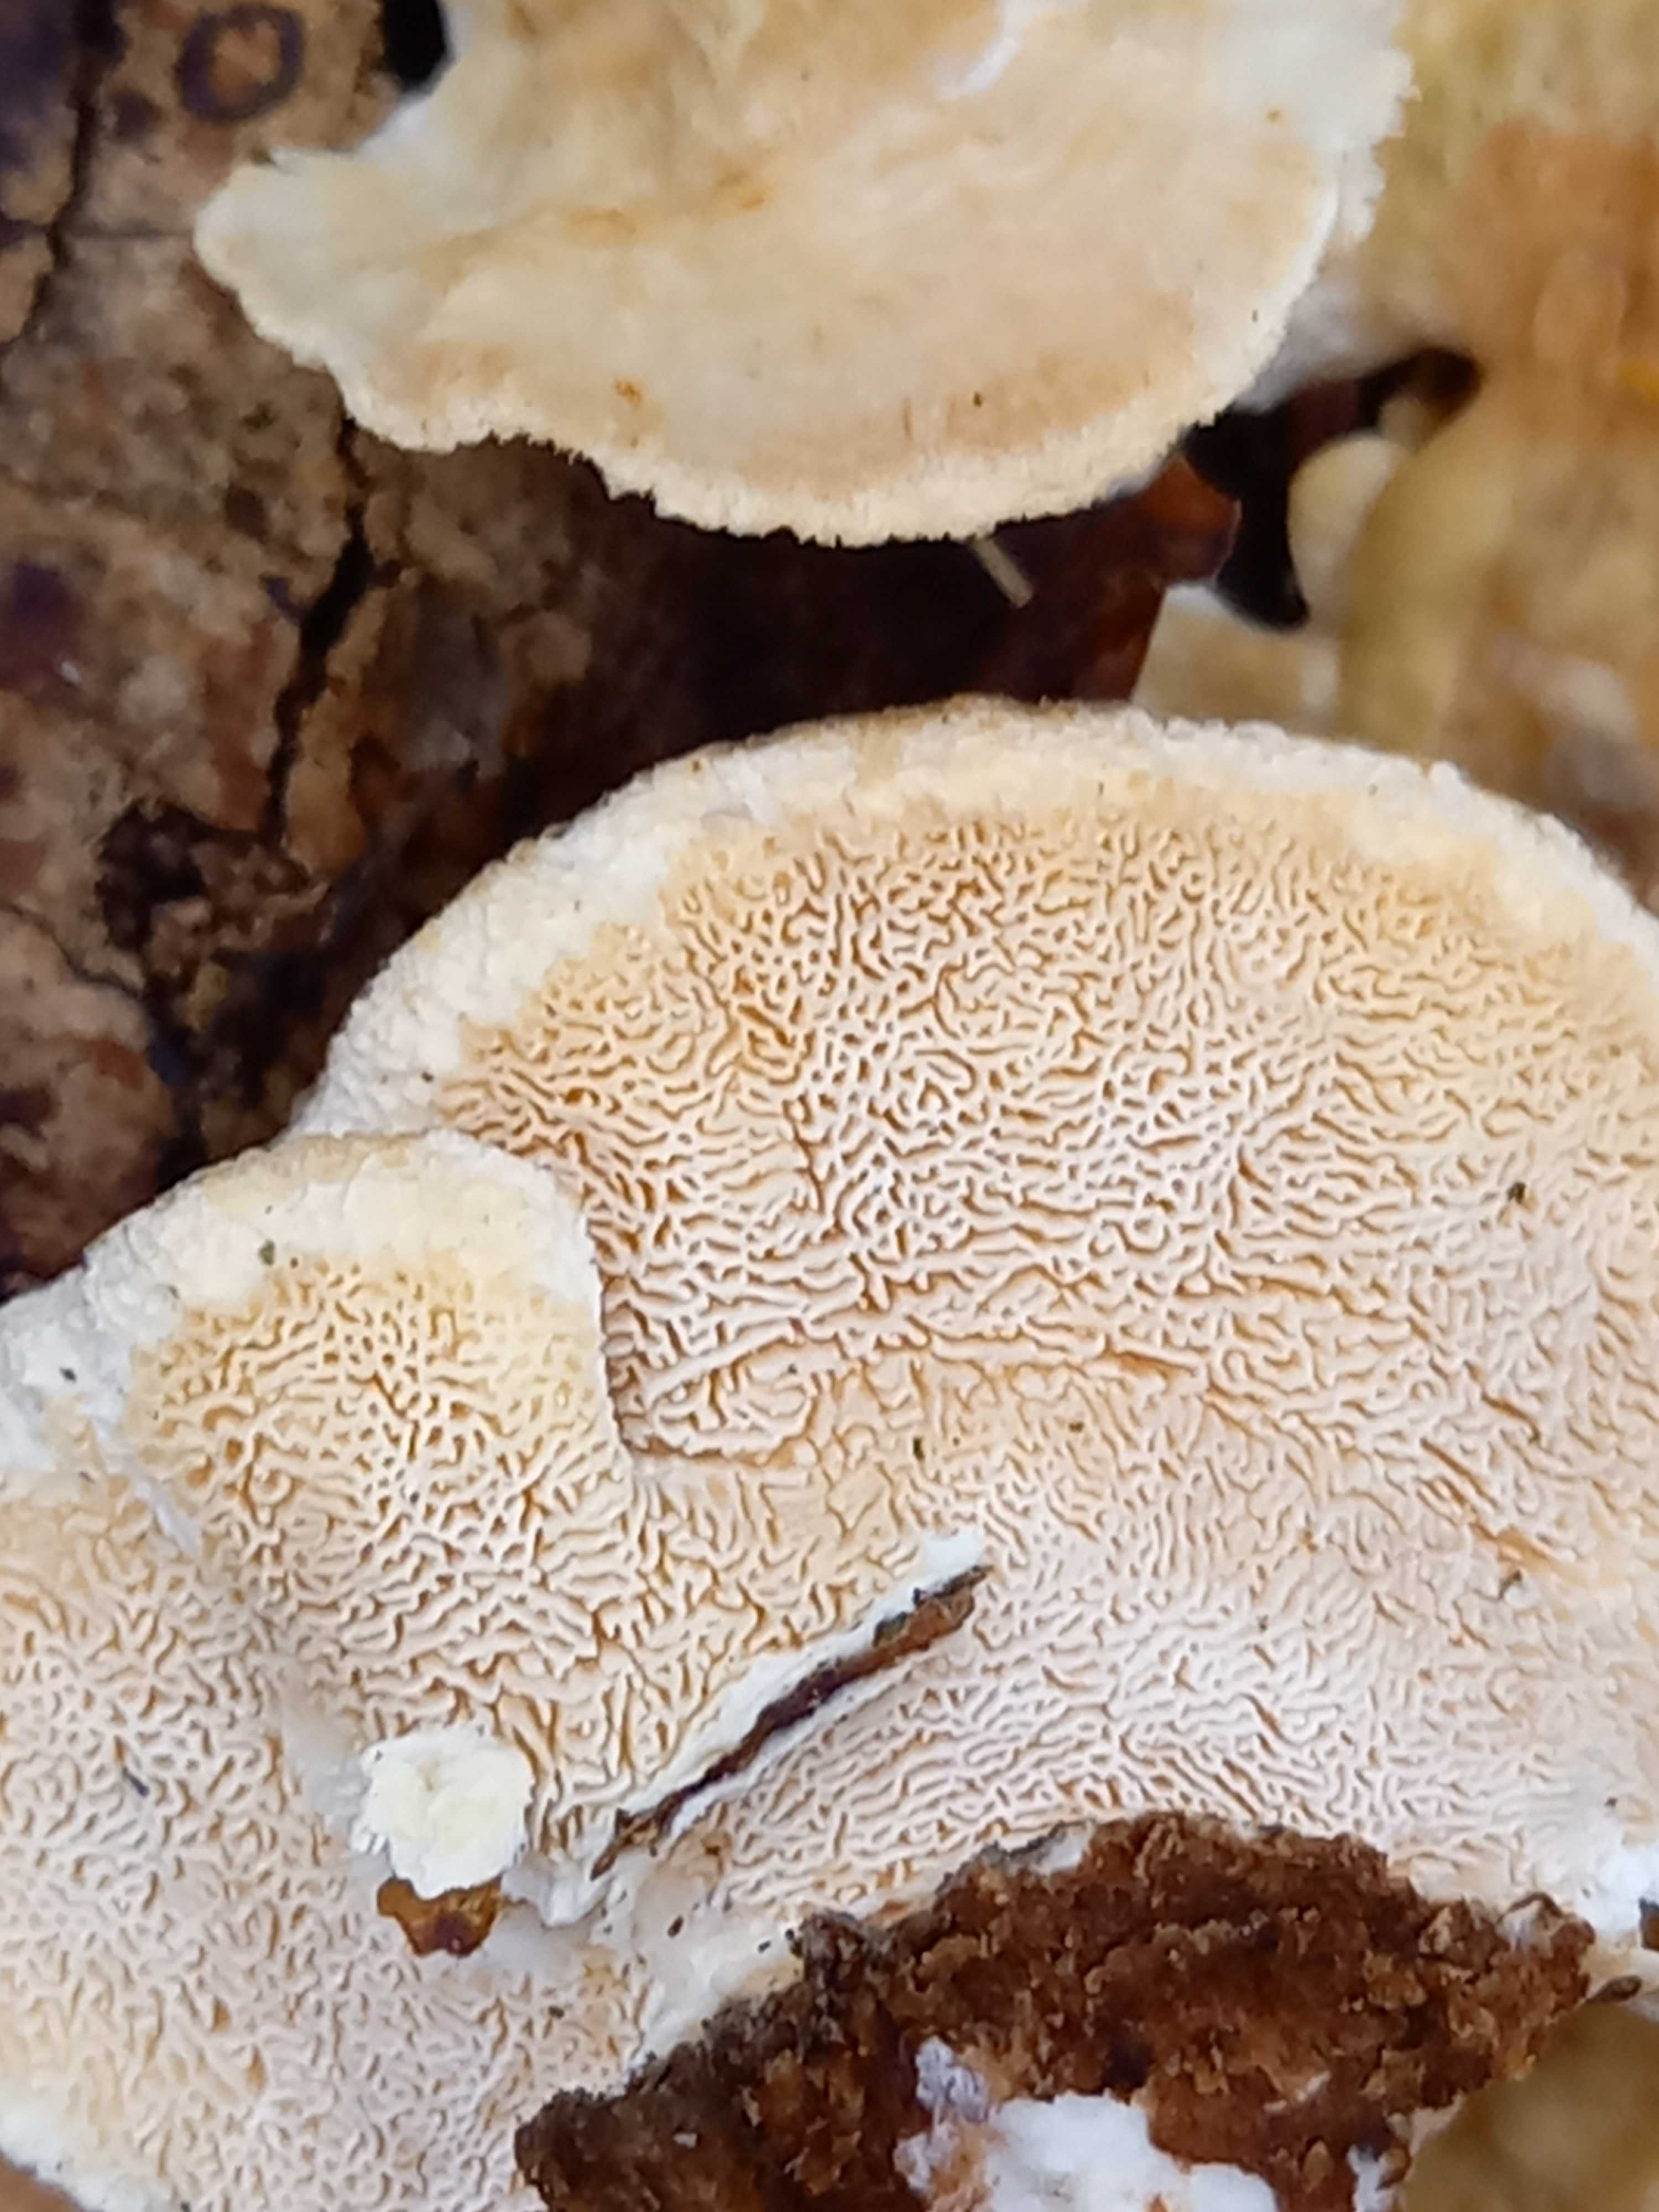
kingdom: Fungi
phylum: Basidiomycota
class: Agaricomycetes
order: Polyporales
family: Polyporaceae
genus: Trametes
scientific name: Trametes ochracea
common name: bæltet læderporesvamp
